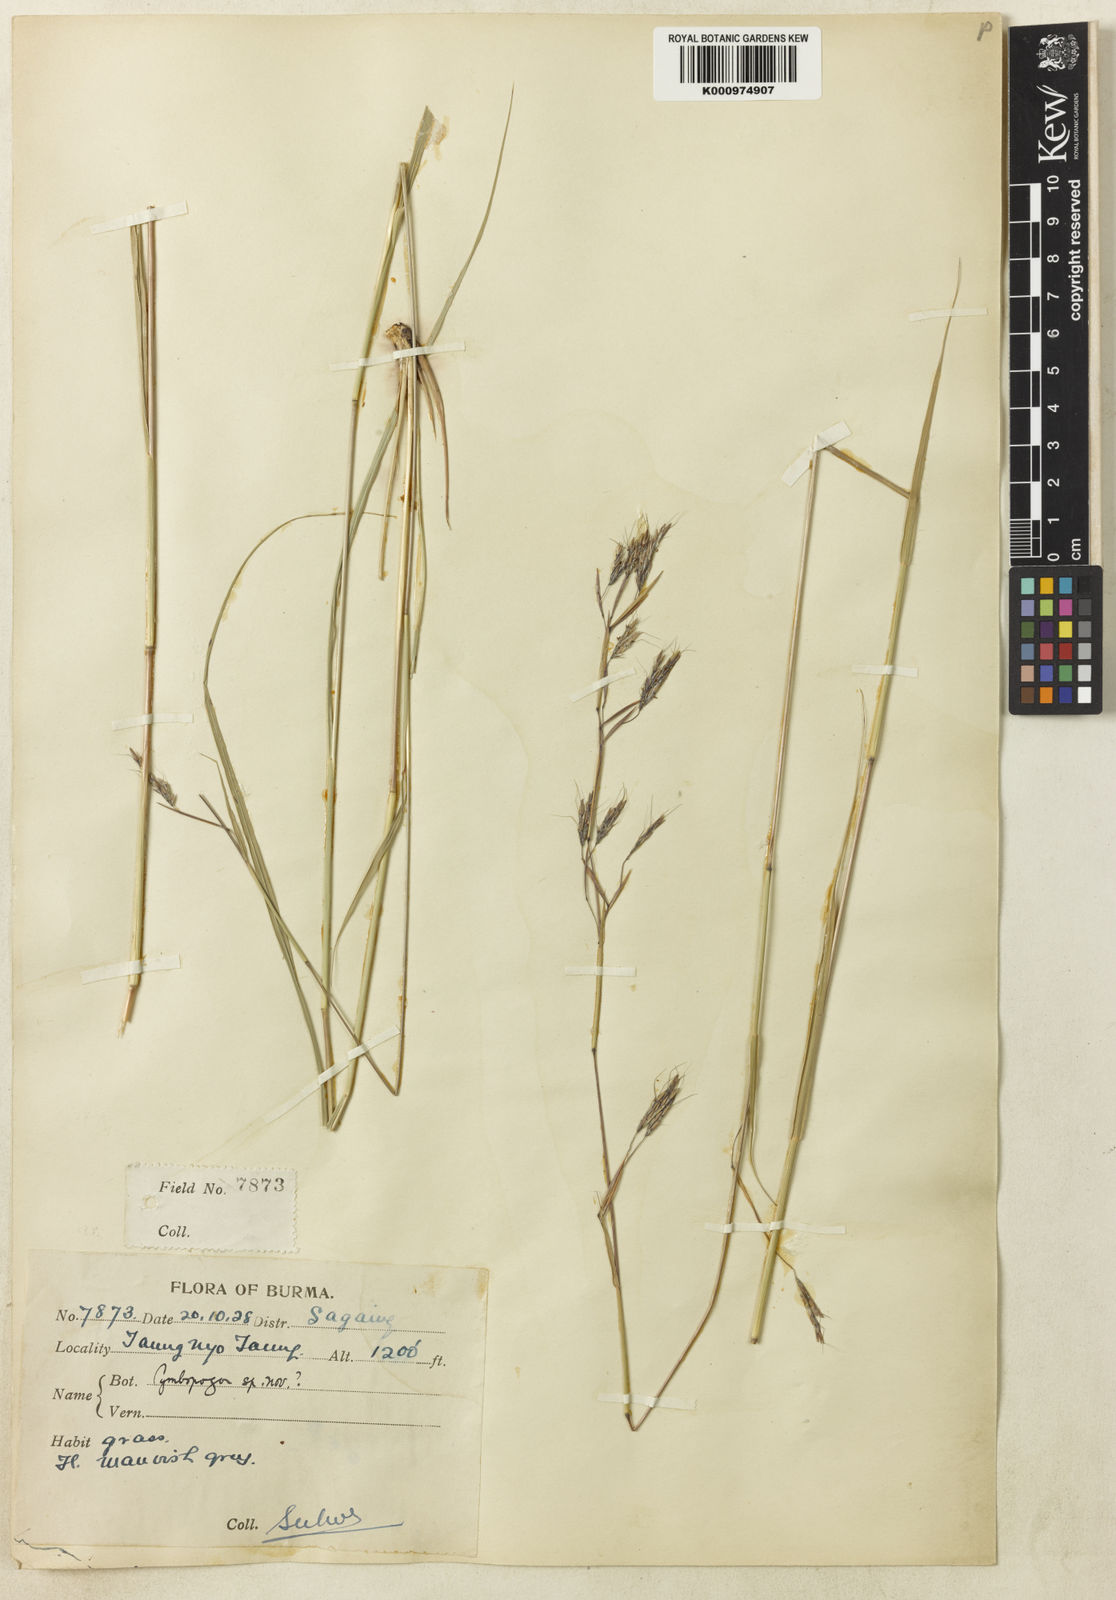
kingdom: Plantae
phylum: Tracheophyta
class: Liliopsida
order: Poales
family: Poaceae
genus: Cymbopogon
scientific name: Cymbopogon gidarba
